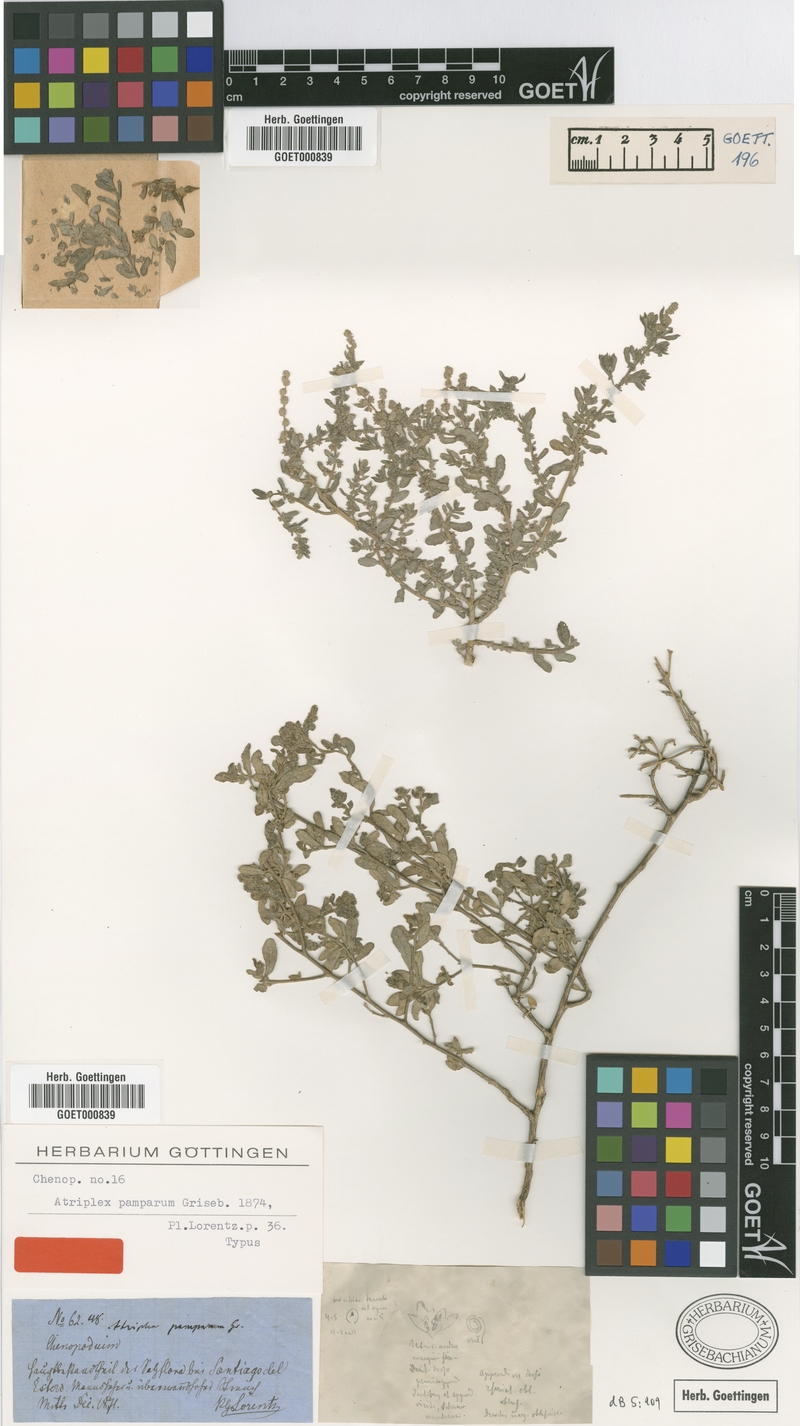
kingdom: Plantae
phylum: Tracheophyta
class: Magnoliopsida
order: Caryophyllales
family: Amaranthaceae
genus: Atriplex
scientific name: Atriplex pamparum
